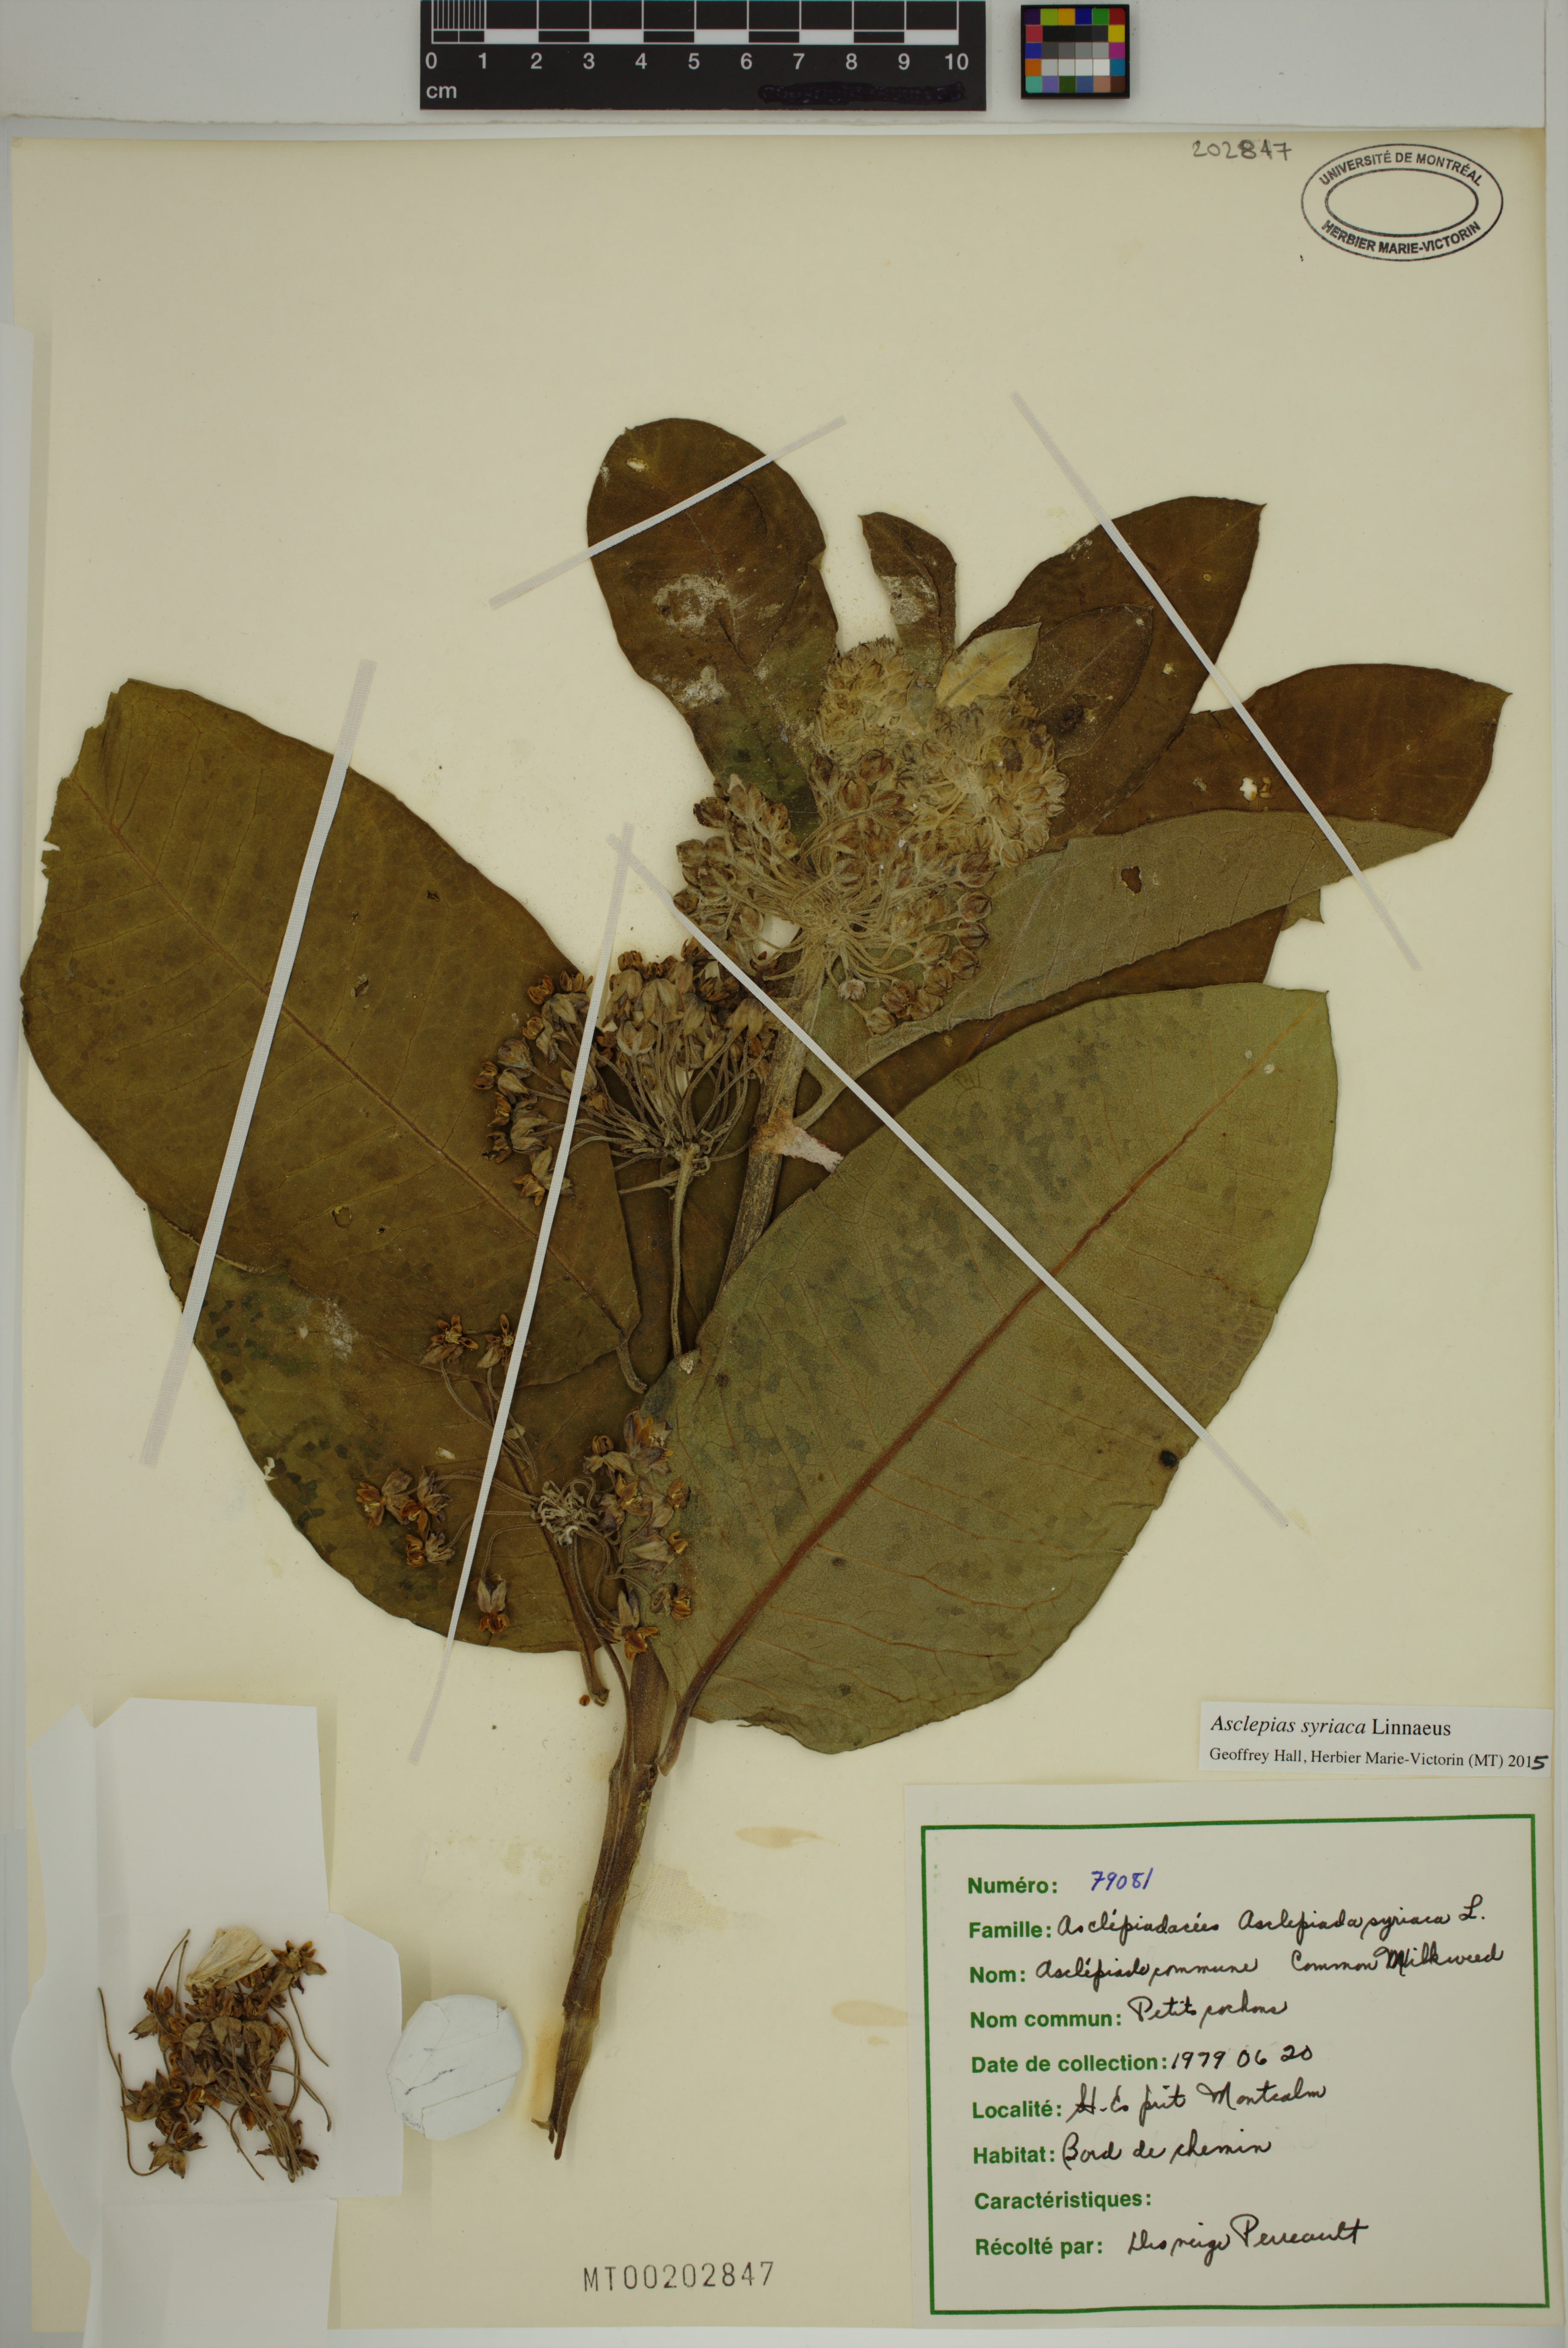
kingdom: Plantae
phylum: Tracheophyta
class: Magnoliopsida
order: Gentianales
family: Apocynaceae
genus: Asclepias
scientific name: Asclepias syriaca
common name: Common milkweed
